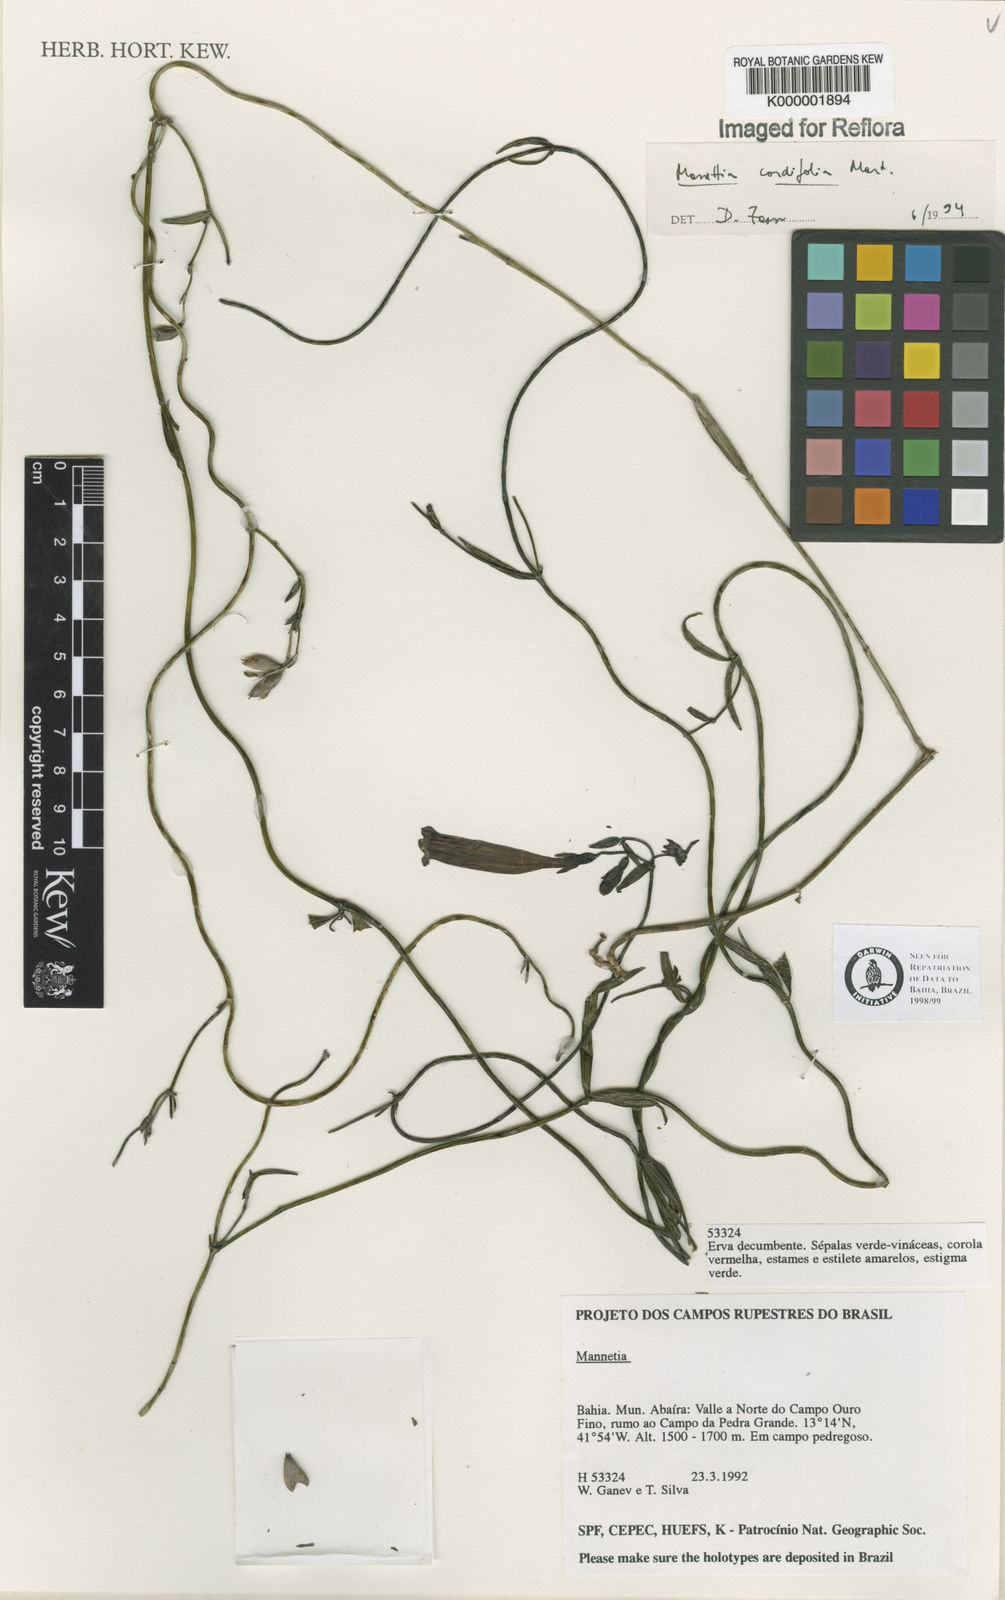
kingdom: Plantae
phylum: Tracheophyta
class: Magnoliopsida
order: Gentianales
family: Rubiaceae
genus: Manettia
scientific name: Manettia cordifolia
